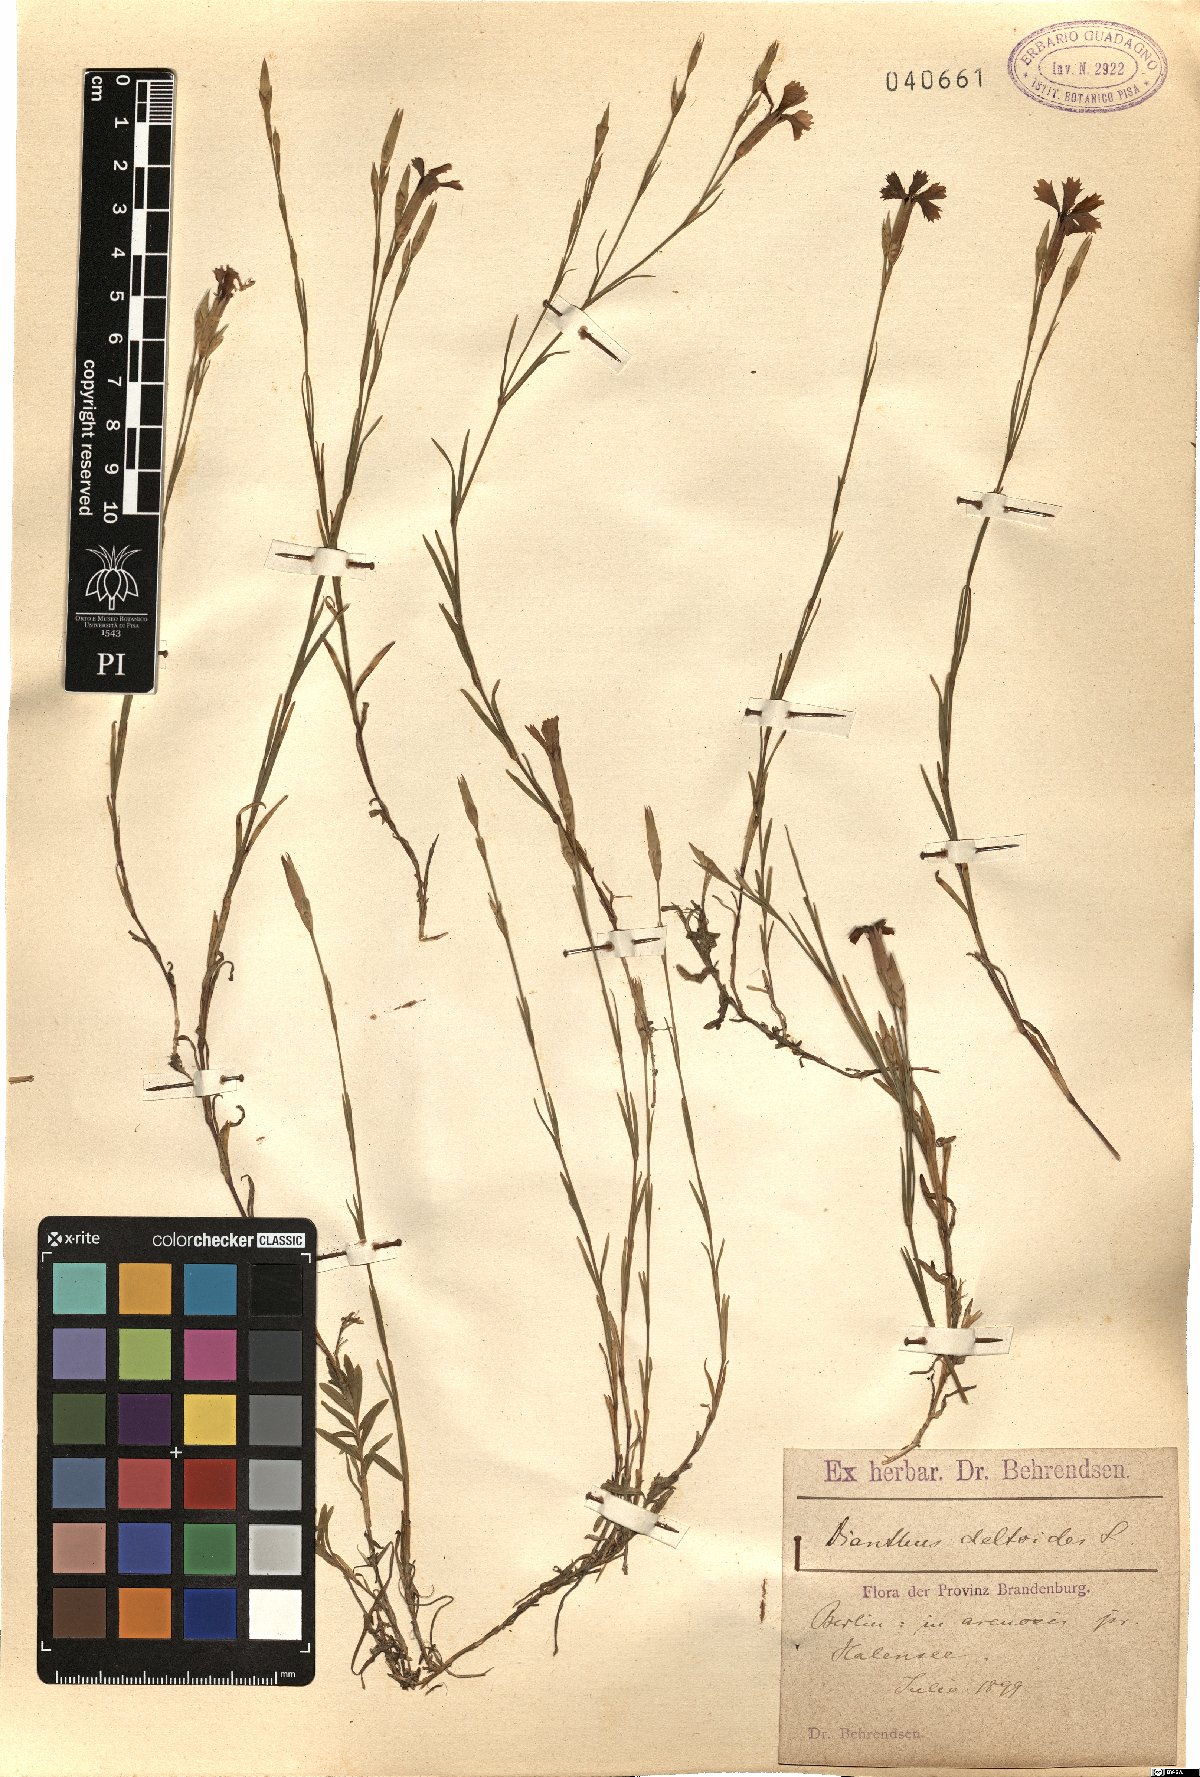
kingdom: Plantae
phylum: Tracheophyta
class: Magnoliopsida
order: Caryophyllales
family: Caryophyllaceae
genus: Dianthus
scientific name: Dianthus deltoides
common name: Maiden pink
